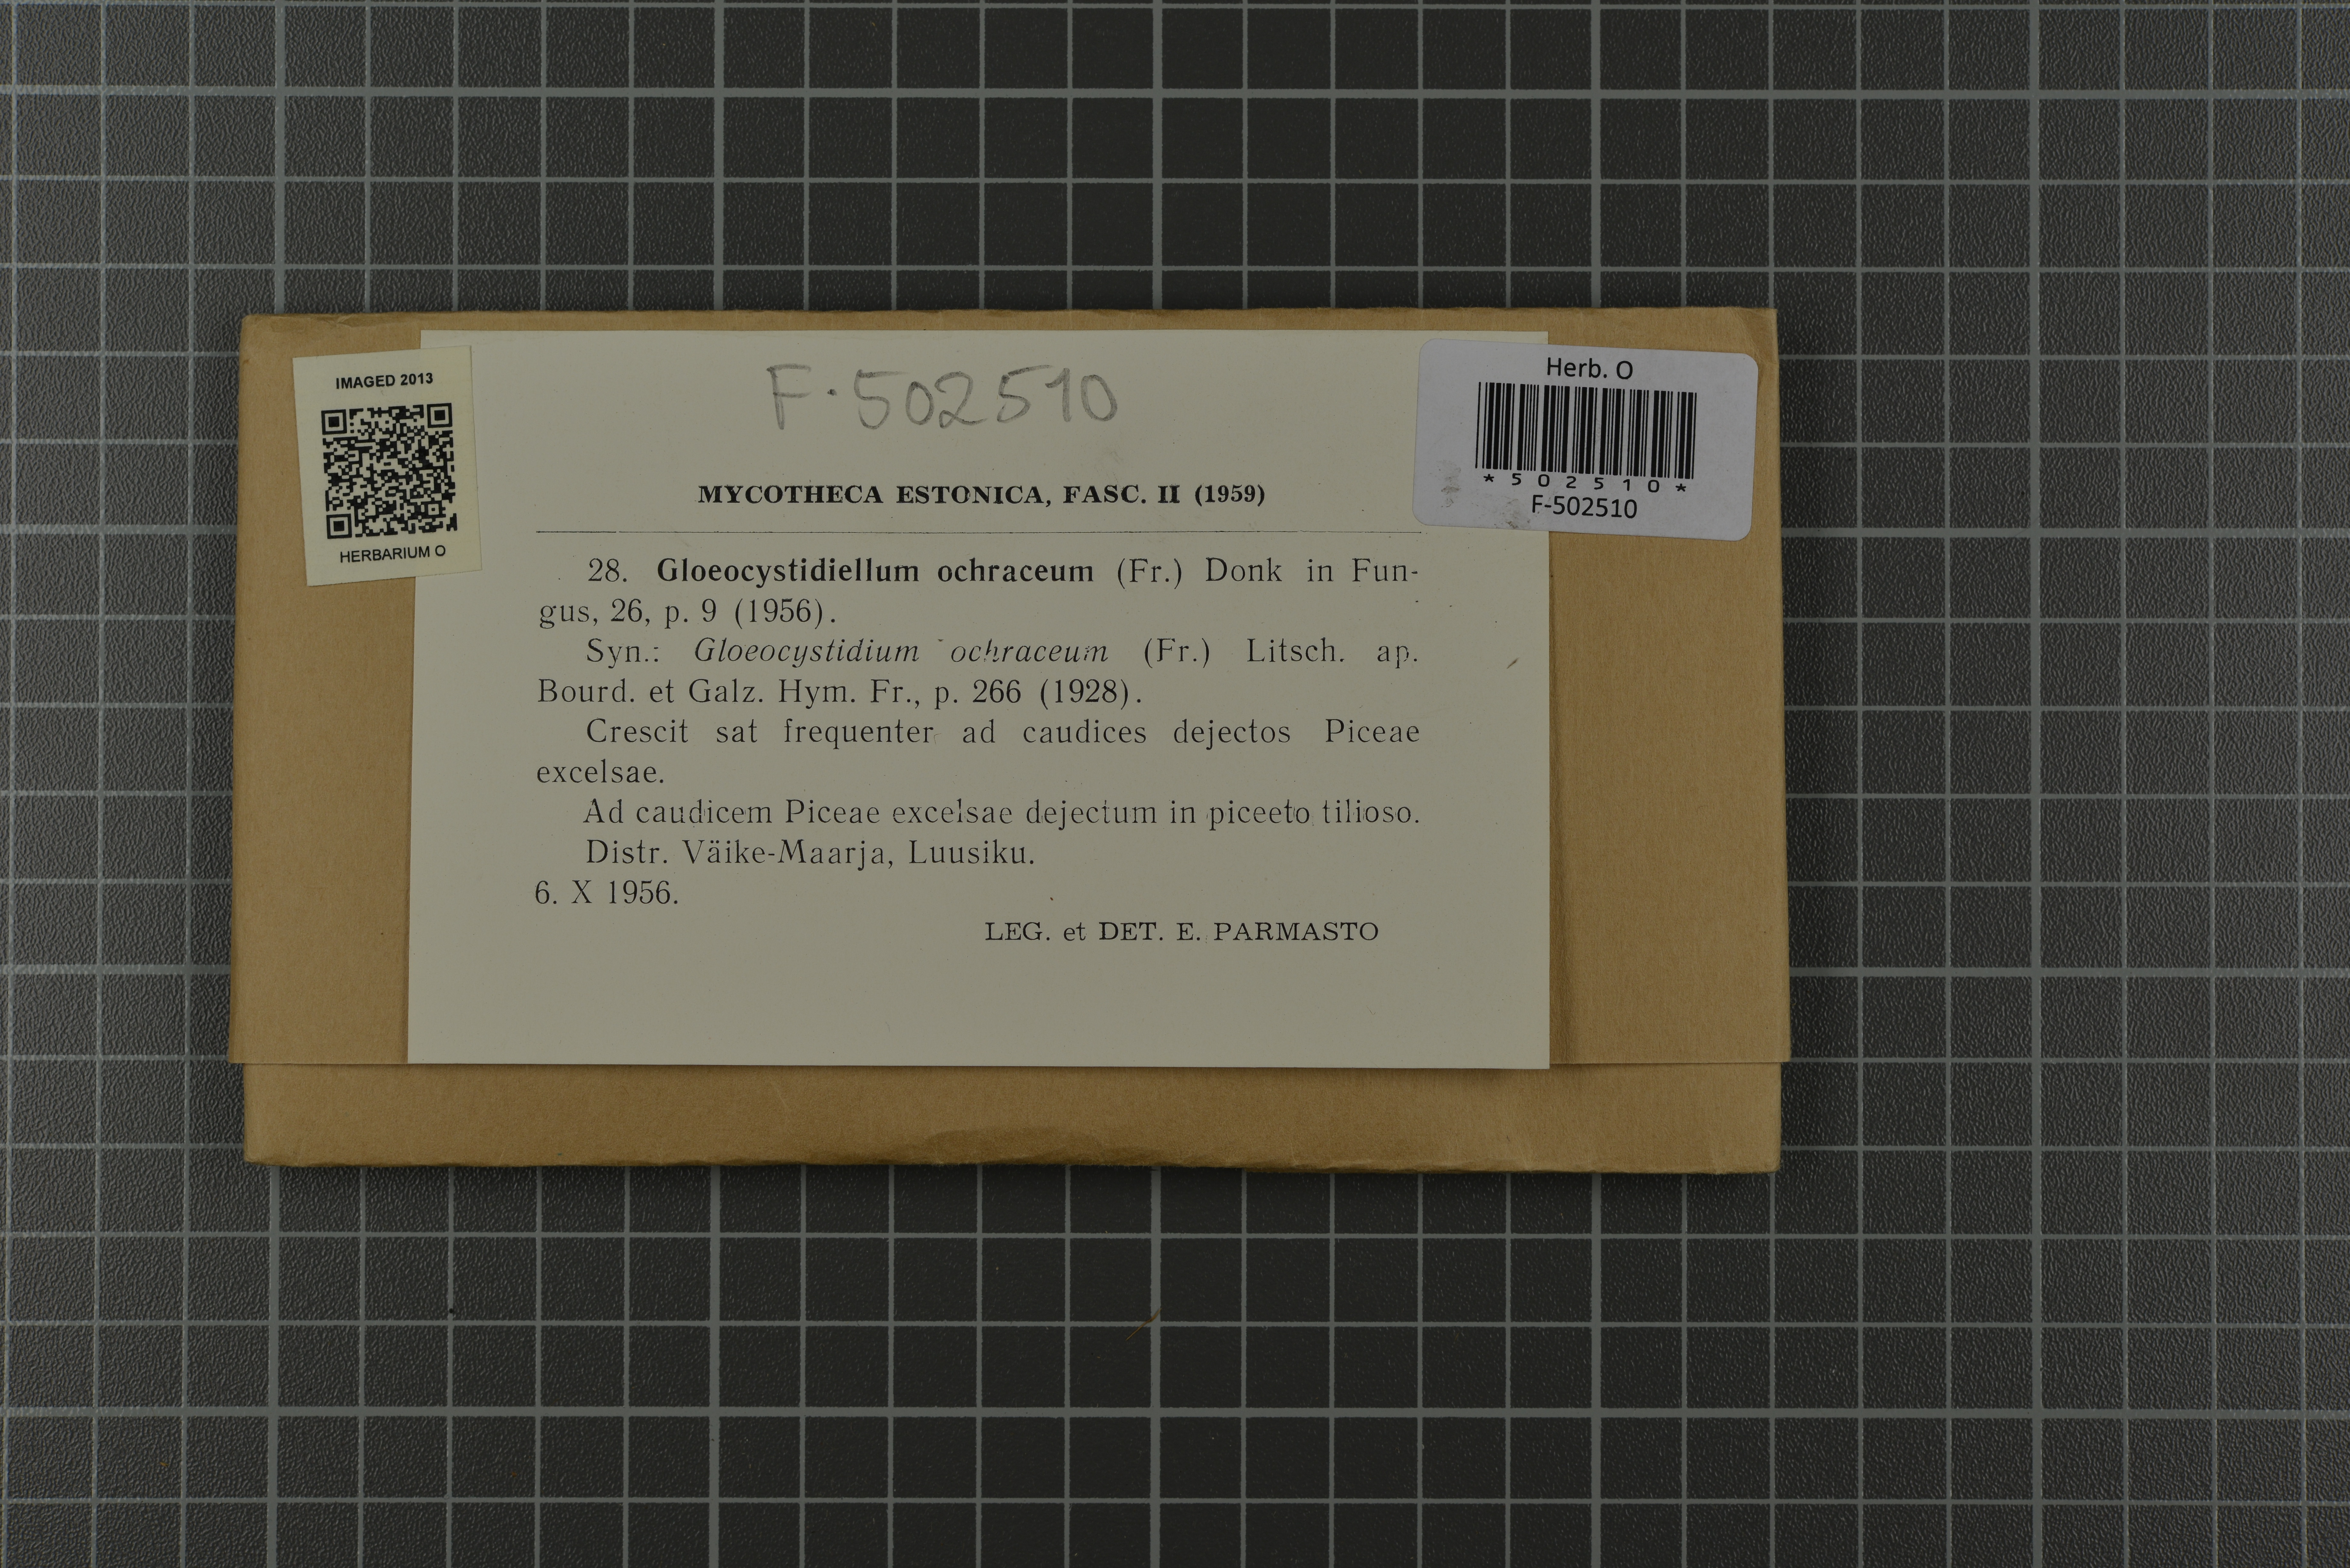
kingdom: Fungi
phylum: Basidiomycota
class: Agaricomycetes
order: Russulales
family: Stereaceae
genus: Conferticium
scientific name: Conferticium ochraceum
